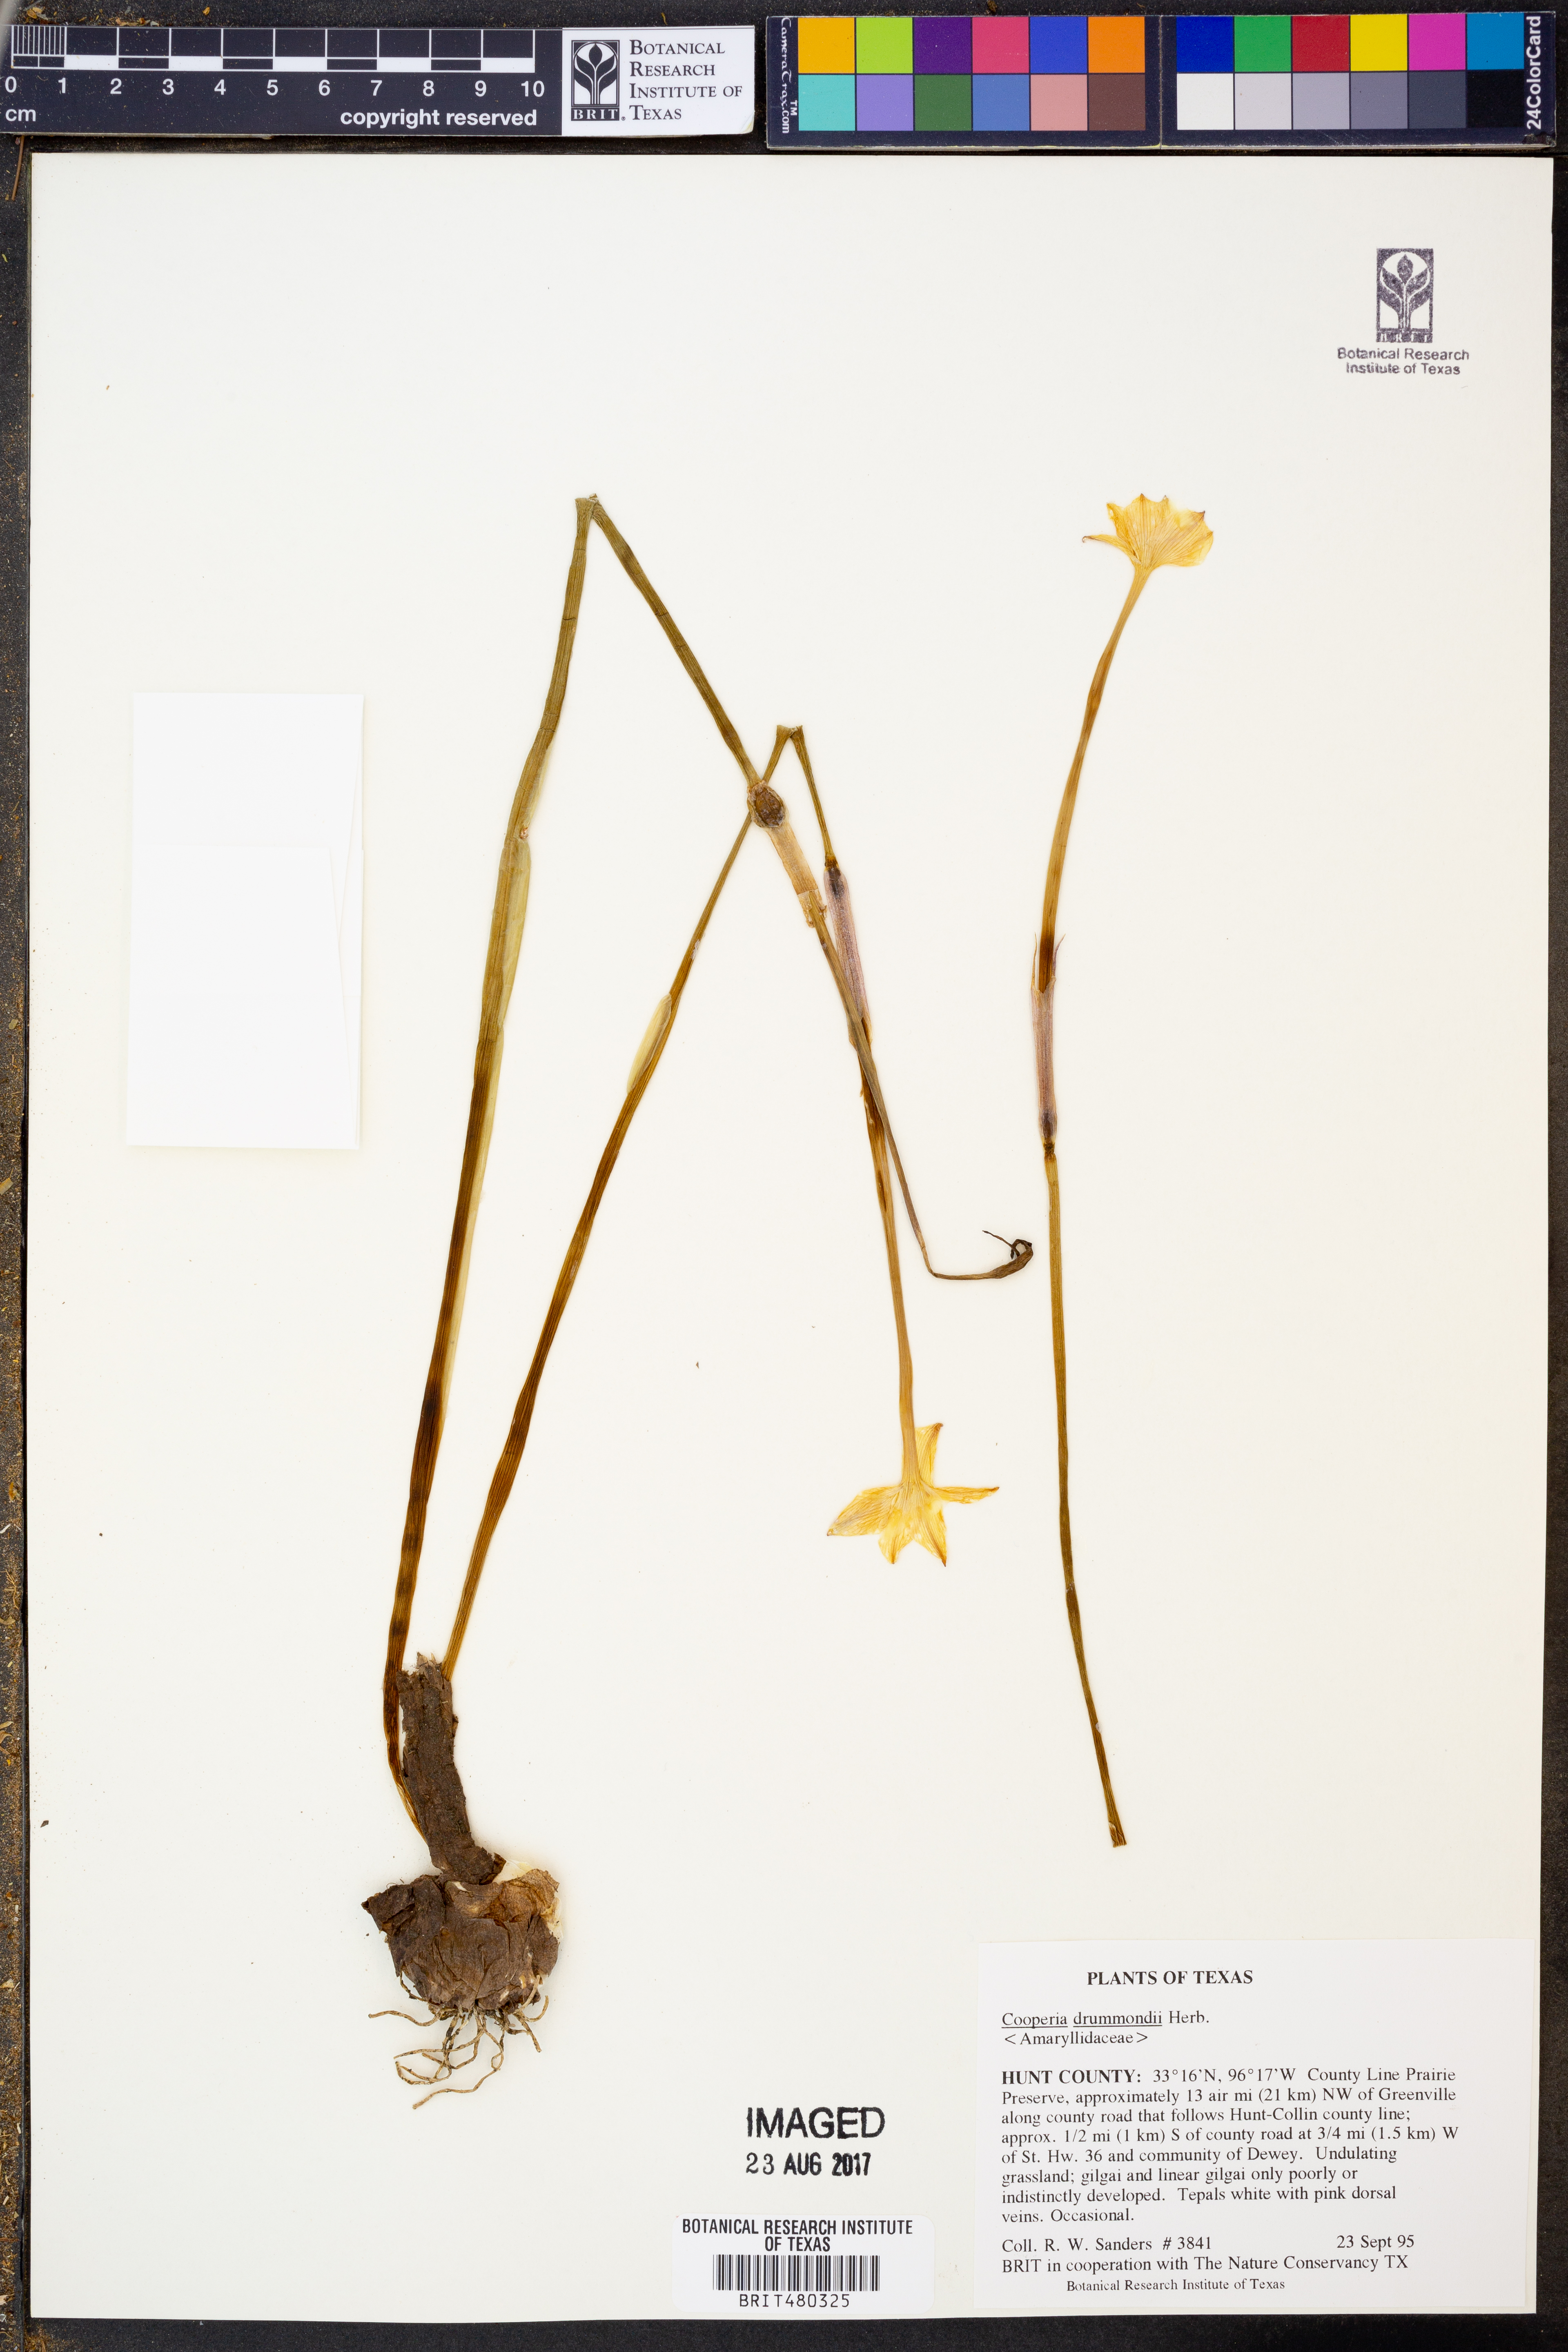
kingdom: Plantae
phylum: Tracheophyta
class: Liliopsida
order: Asparagales
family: Amaryllidaceae
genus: Zephyranthes
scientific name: Zephyranthes chlorosolen
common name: Evening rain-lily
